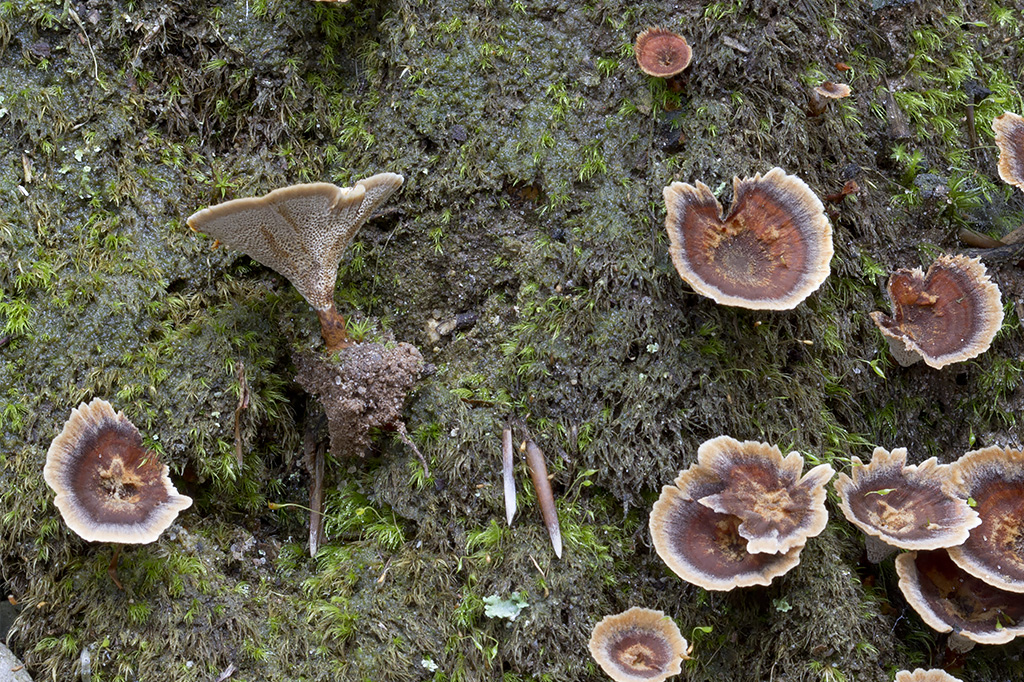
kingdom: Fungi
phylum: Basidiomycota
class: Agaricomycetes
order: Hymenochaetales
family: Hymenochaetaceae
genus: Coltricia
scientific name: Coltricia
